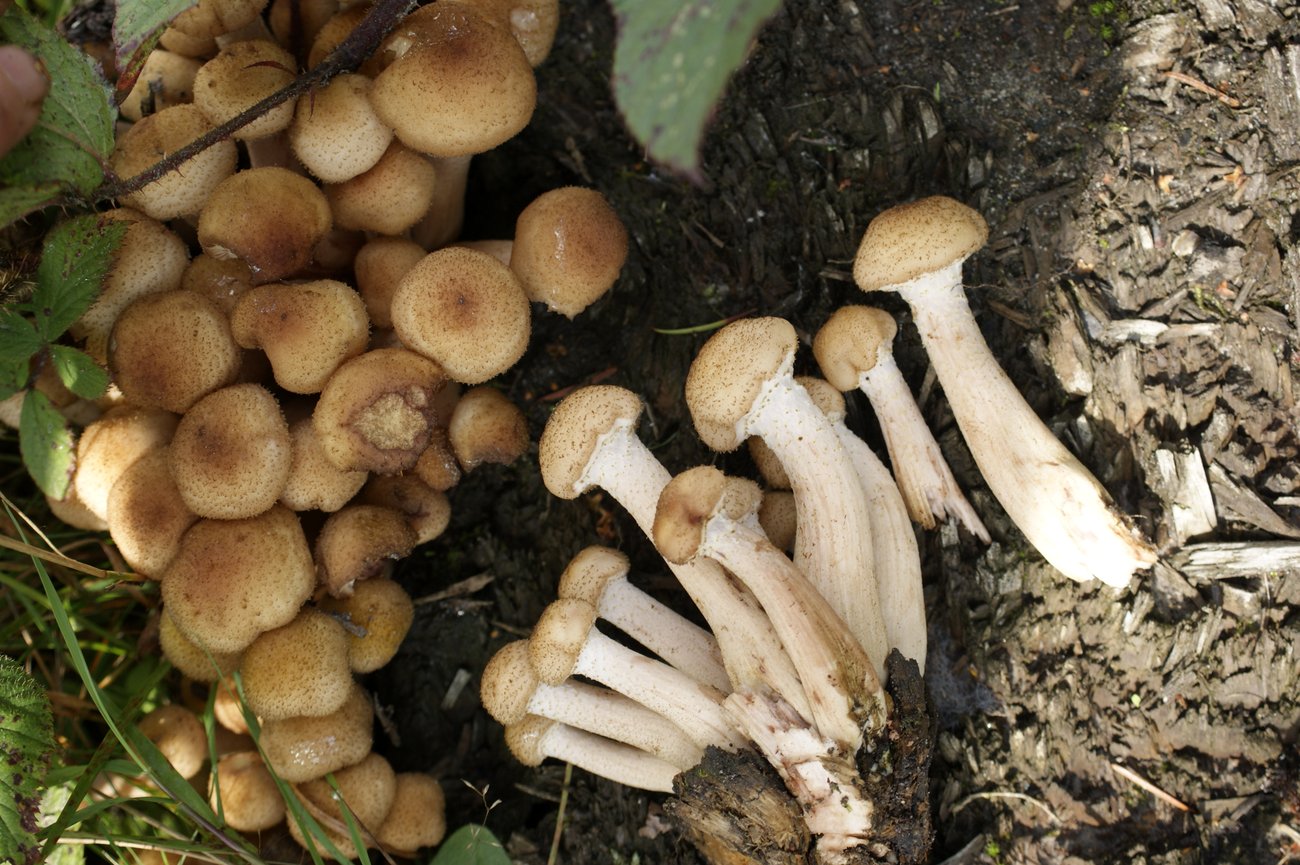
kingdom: Fungi
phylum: Basidiomycota
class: Agaricomycetes
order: Agaricales
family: Physalacriaceae
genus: Armillaria
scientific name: Armillaria ostoyae
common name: mørk honningsvamp
